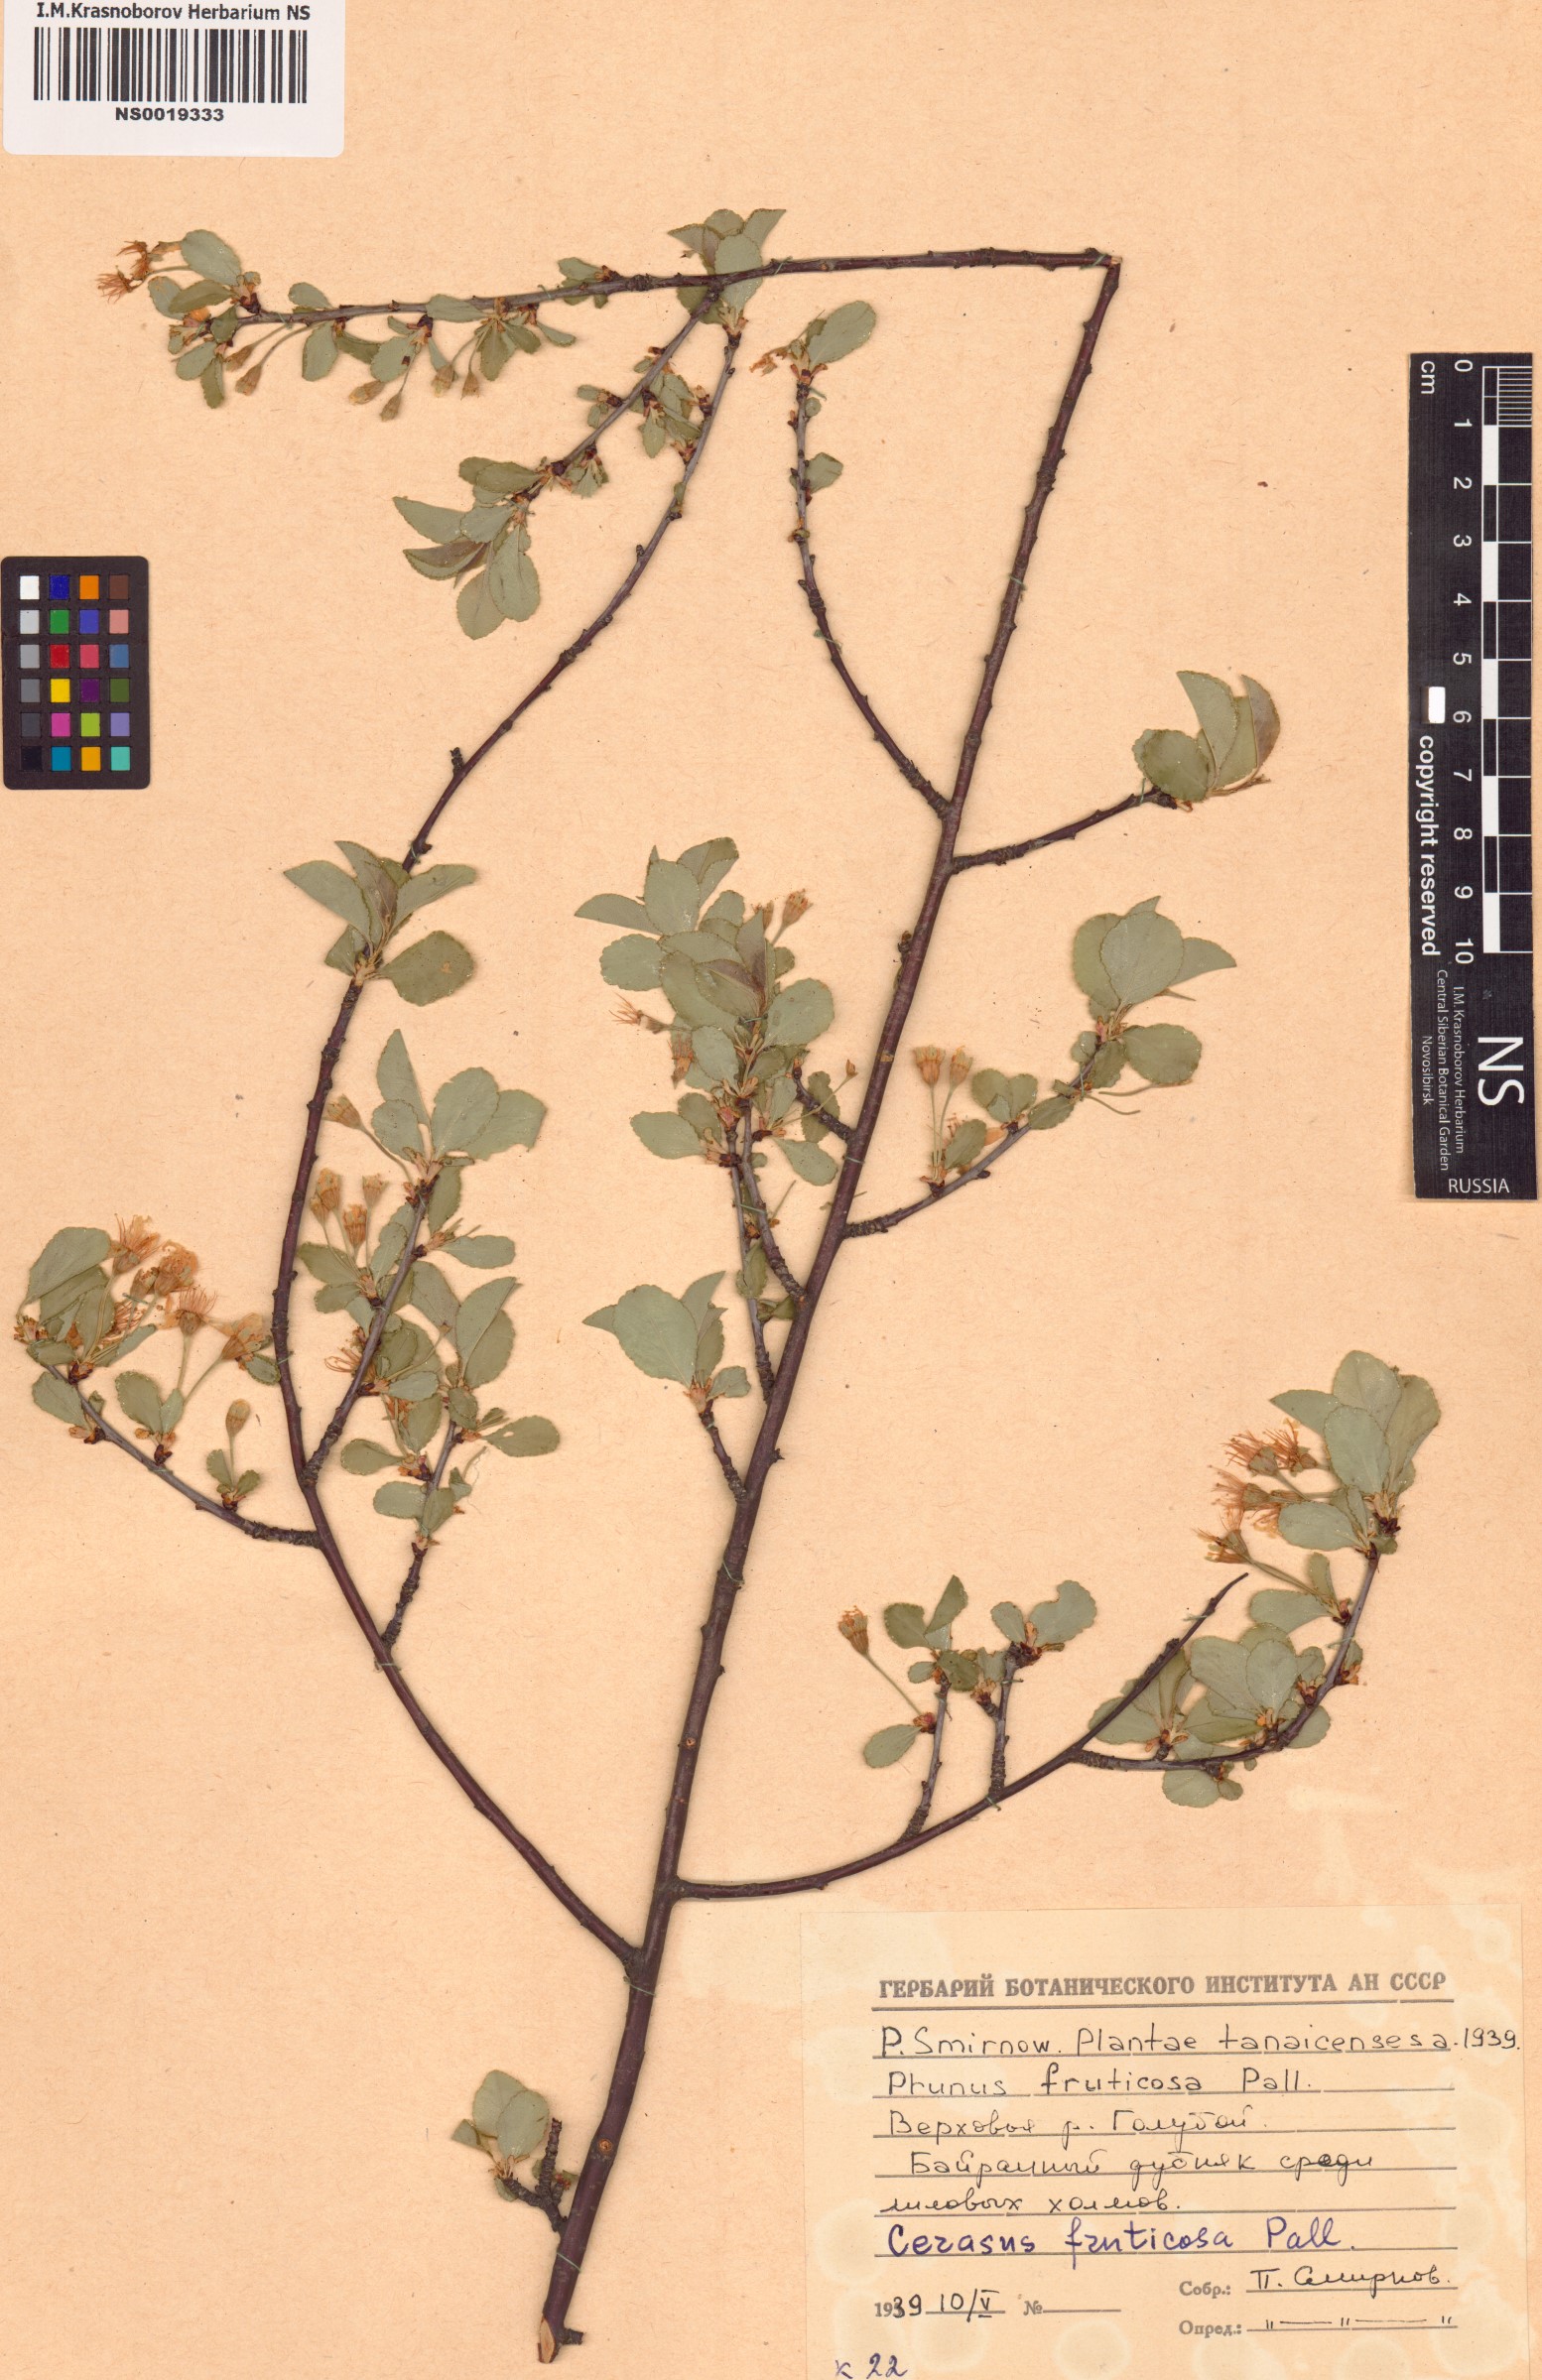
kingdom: Plantae
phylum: Tracheophyta
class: Magnoliopsida
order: Rosales
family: Rosaceae
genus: Prunus
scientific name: Prunus fruticosa
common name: European dwarf cherry
